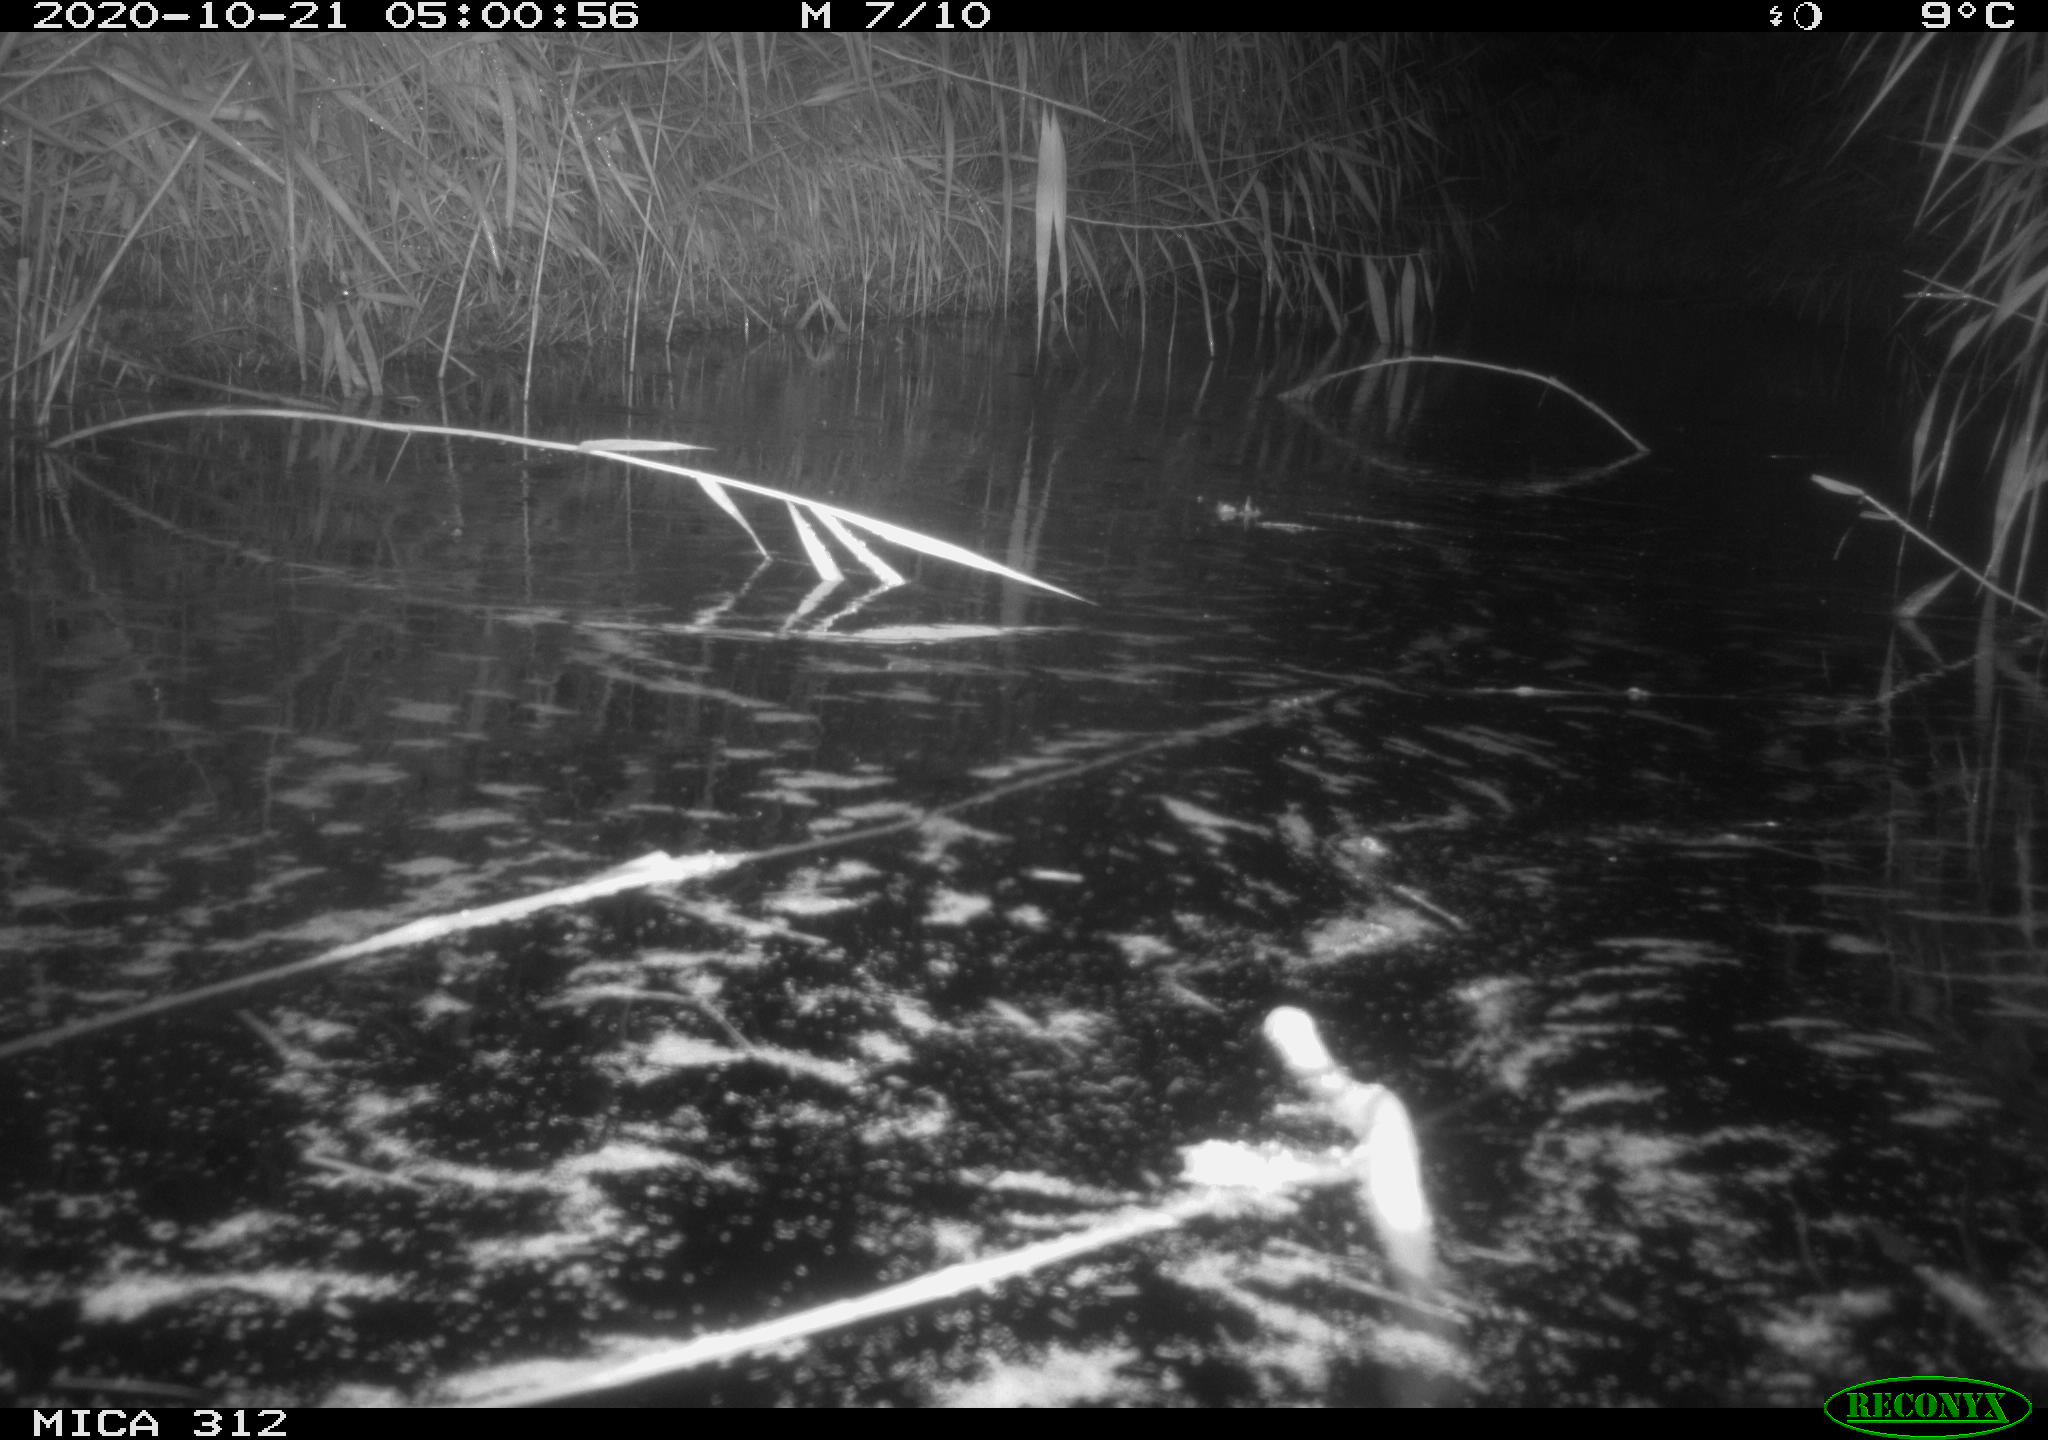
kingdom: Animalia
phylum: Chordata
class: Mammalia
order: Rodentia
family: Muridae
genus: Rattus
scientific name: Rattus norvegicus
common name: Brown rat
